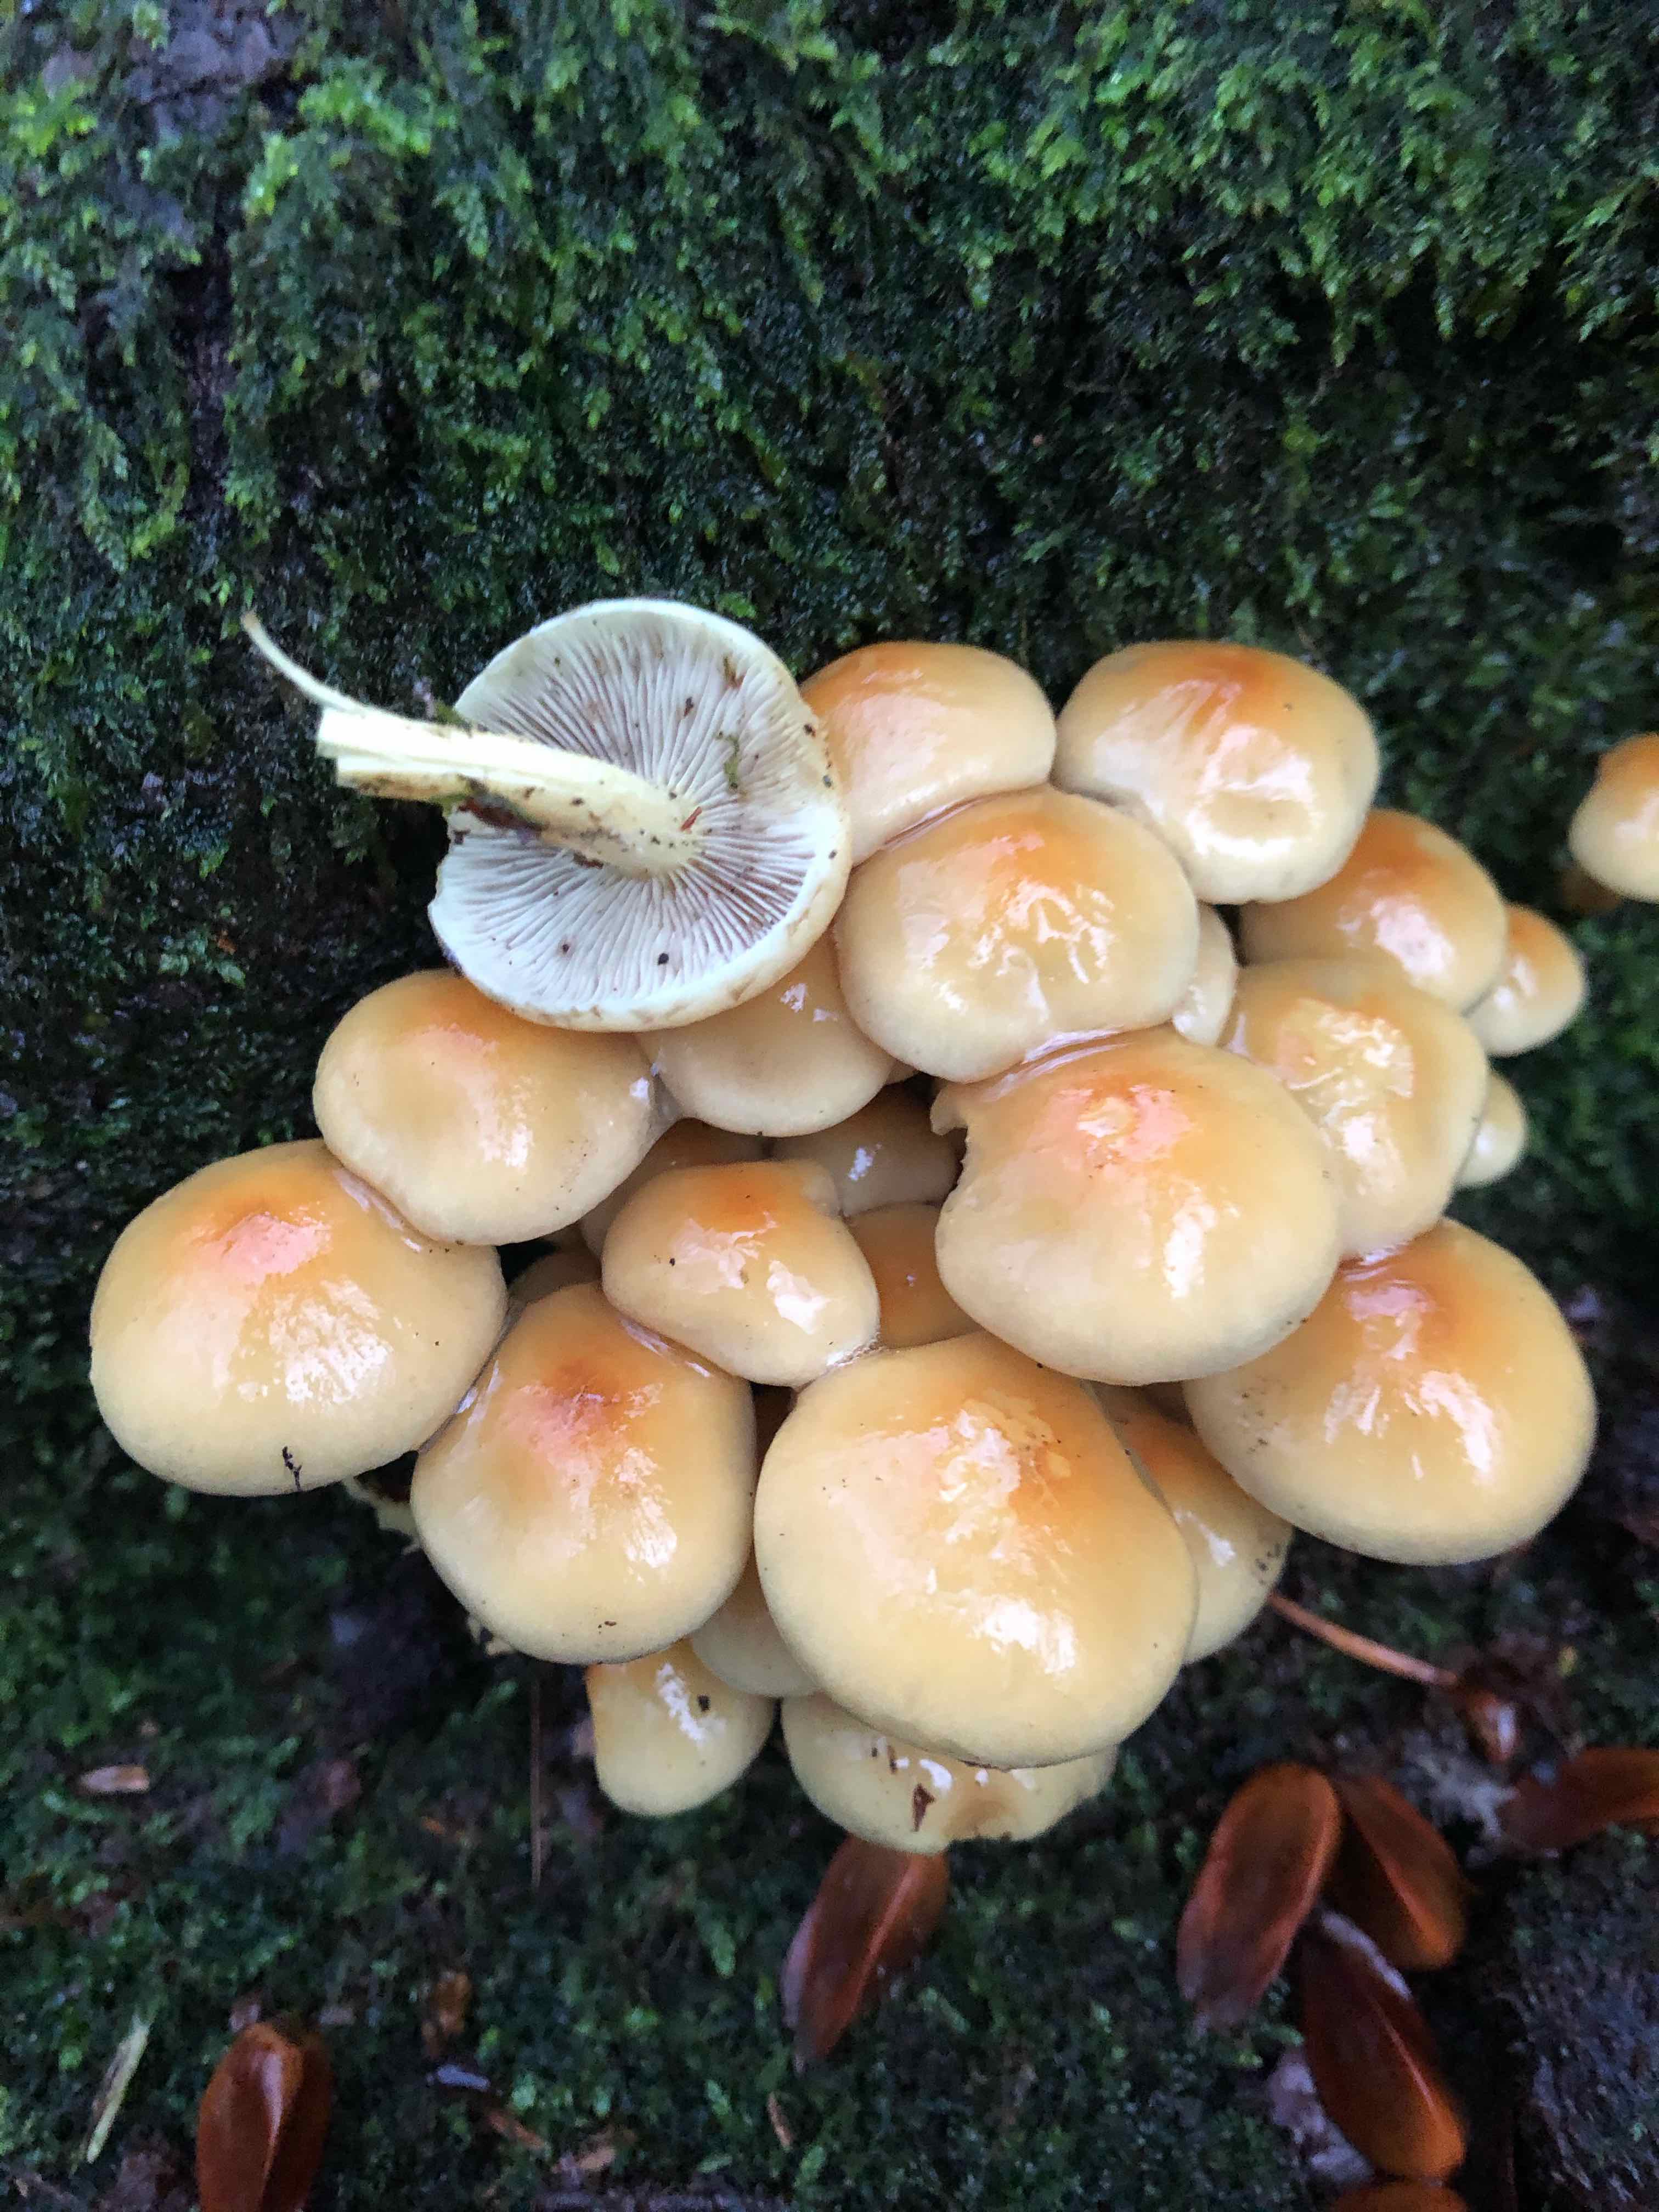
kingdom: Fungi
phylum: Basidiomycota
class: Agaricomycetes
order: Agaricales
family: Strophariaceae
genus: Hypholoma
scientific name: Hypholoma capnoides
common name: gran-svovlhat
